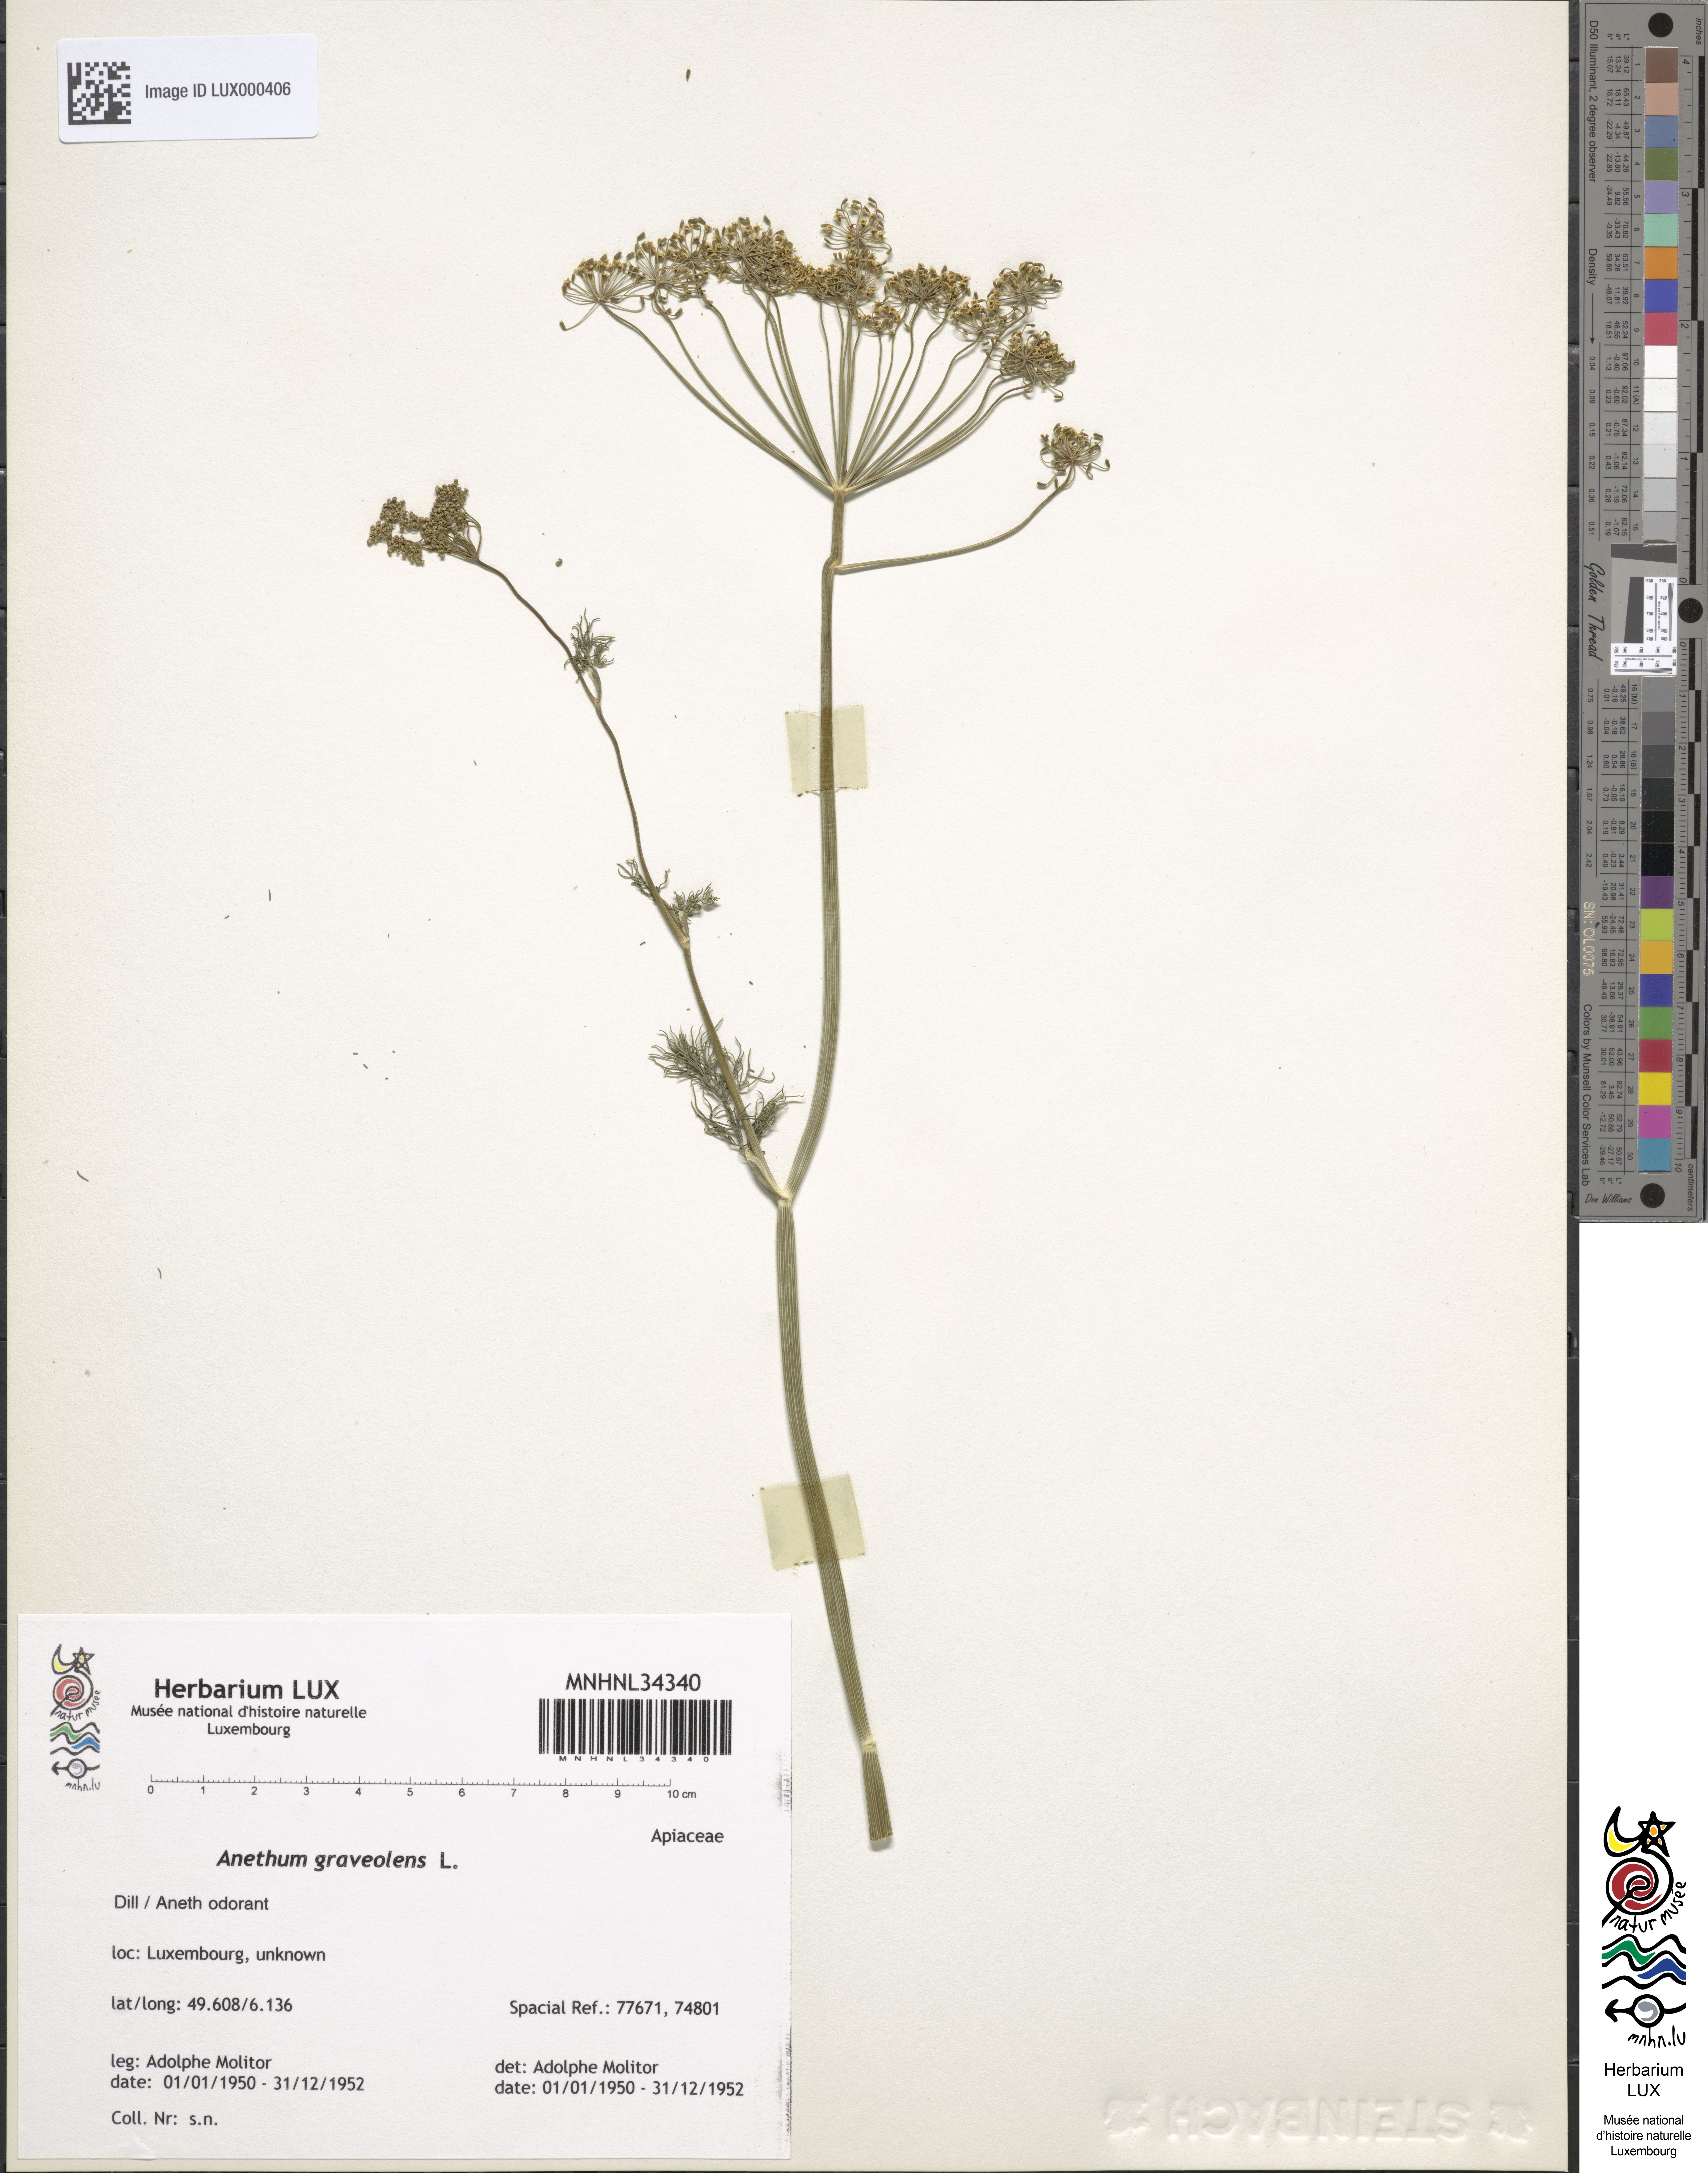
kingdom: Plantae
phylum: Tracheophyta
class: Magnoliopsida
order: Apiales
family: Apiaceae
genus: Anethum
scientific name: Anethum graveolens
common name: Dill
